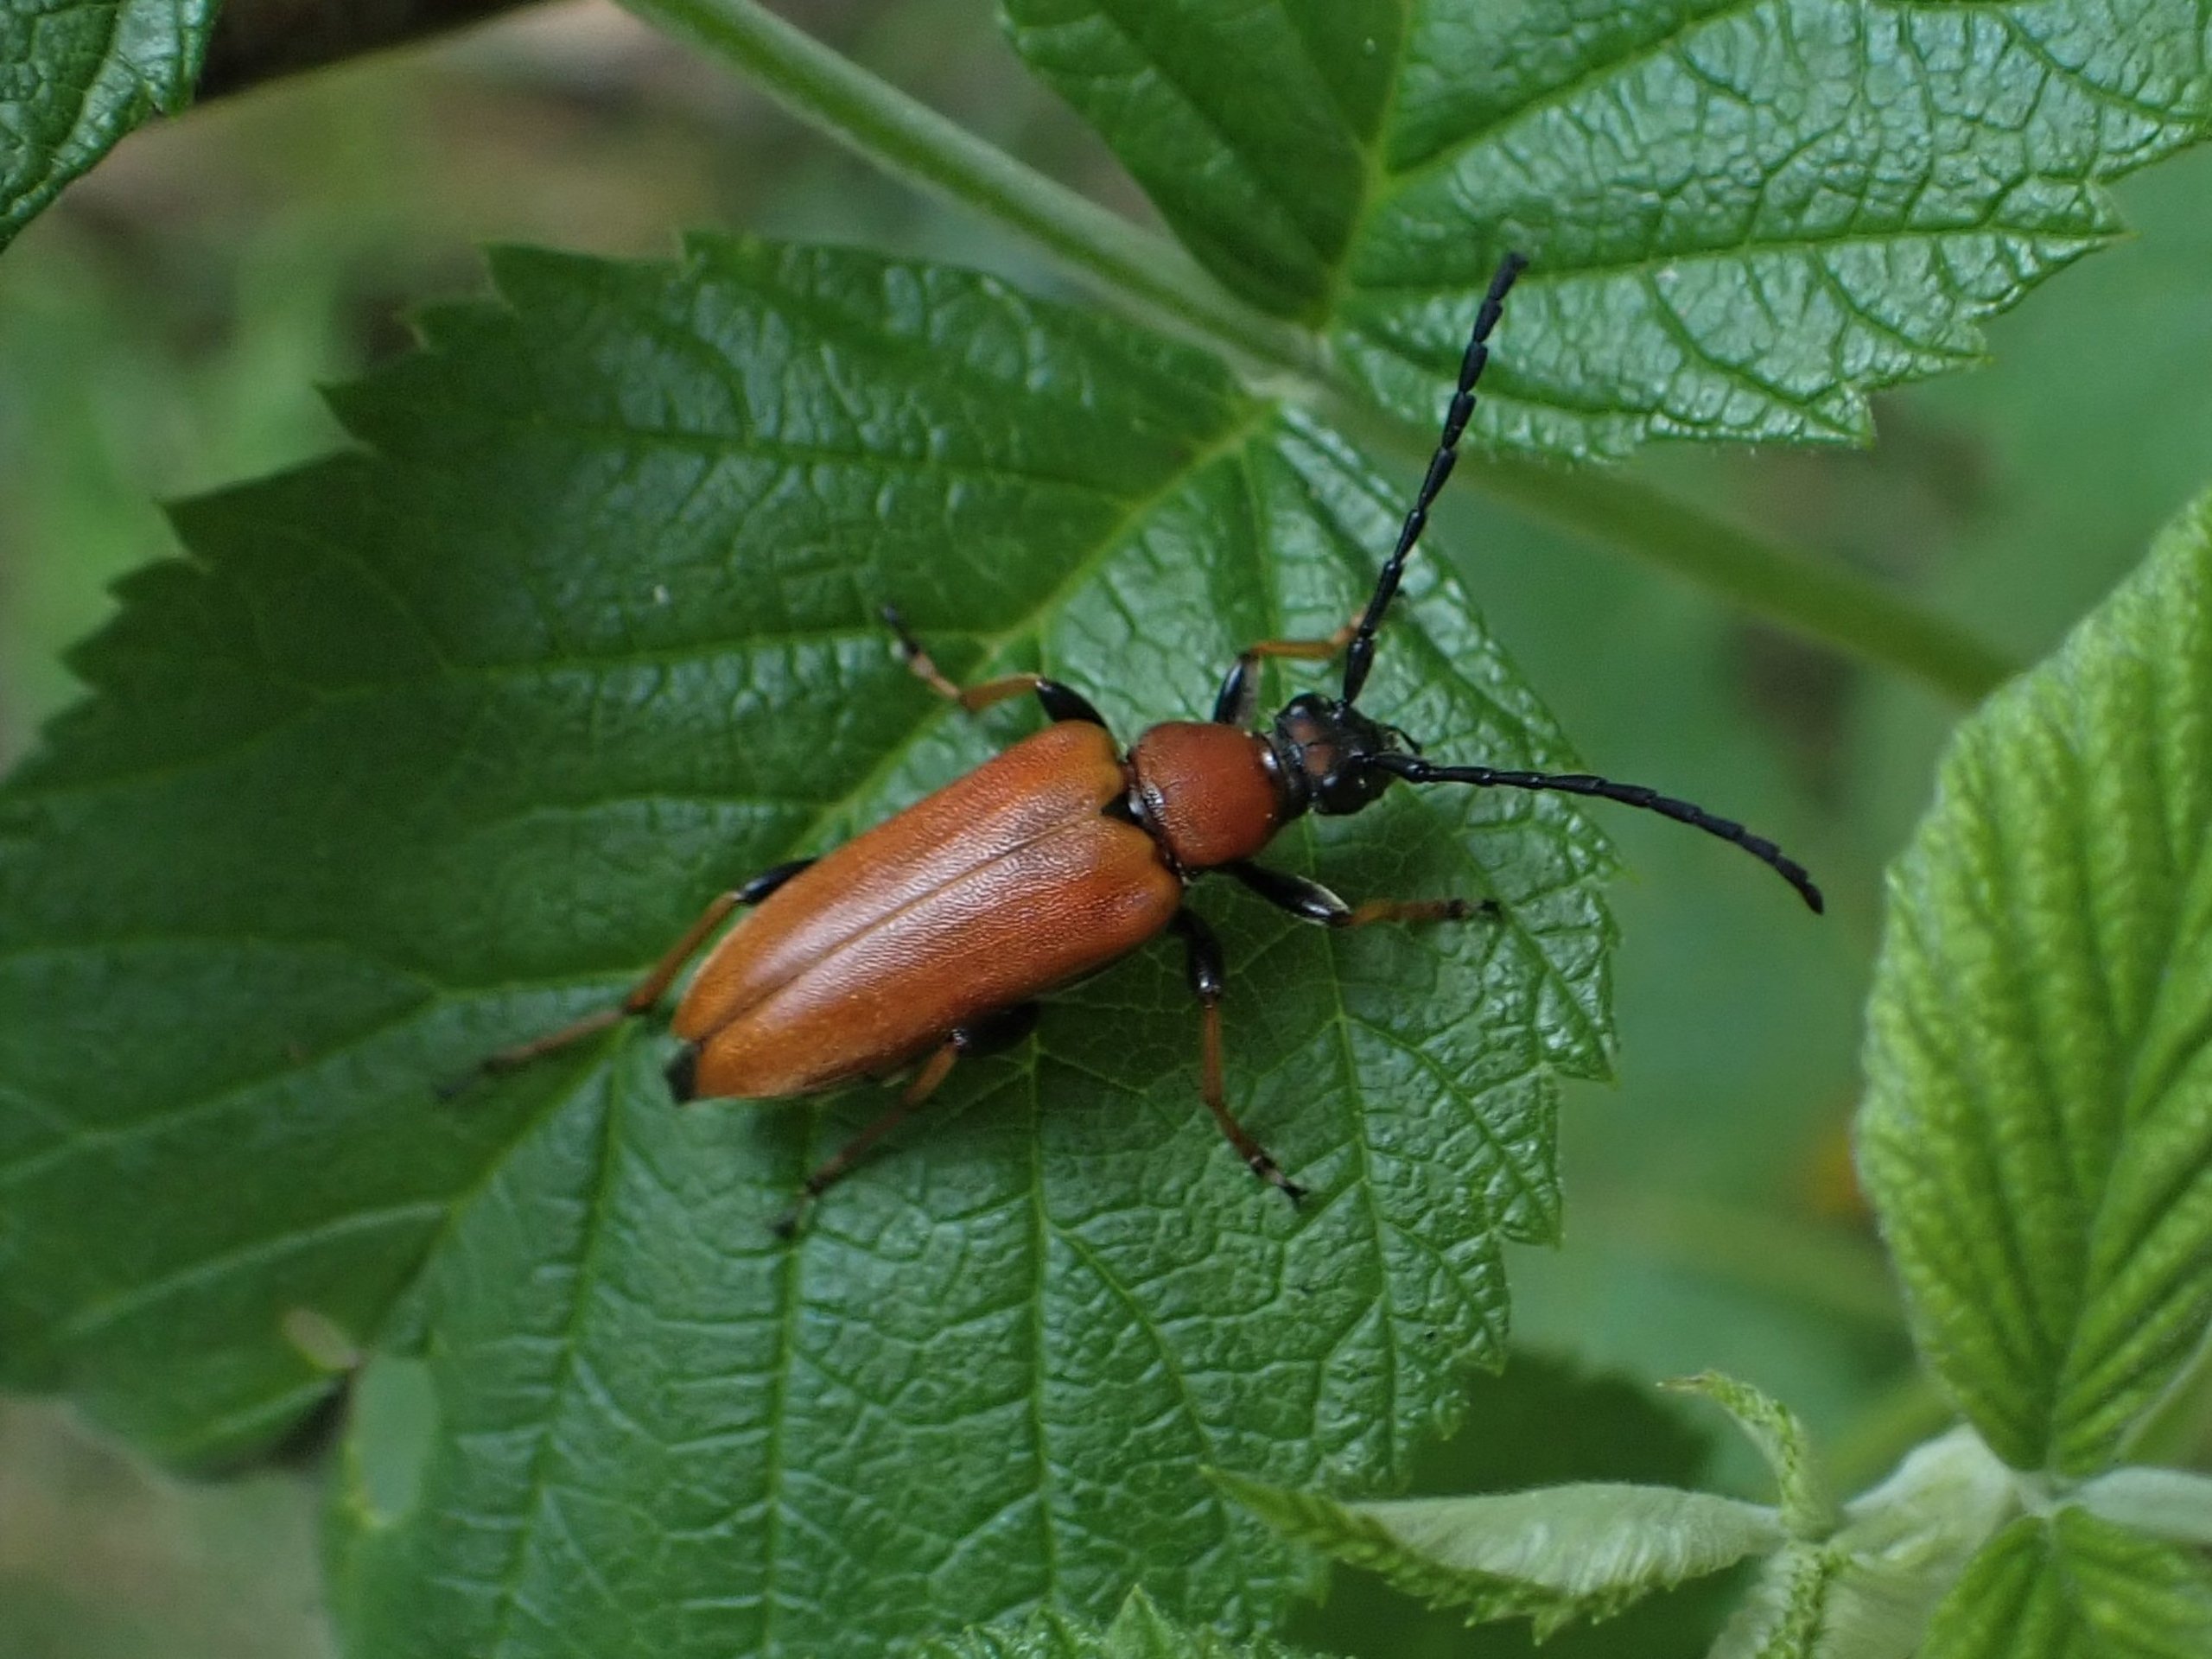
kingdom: Animalia
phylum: Arthropoda
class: Insecta
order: Coleoptera
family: Cerambycidae
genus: Stictoleptura
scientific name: Stictoleptura rubra
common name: Rød blomsterbuk
